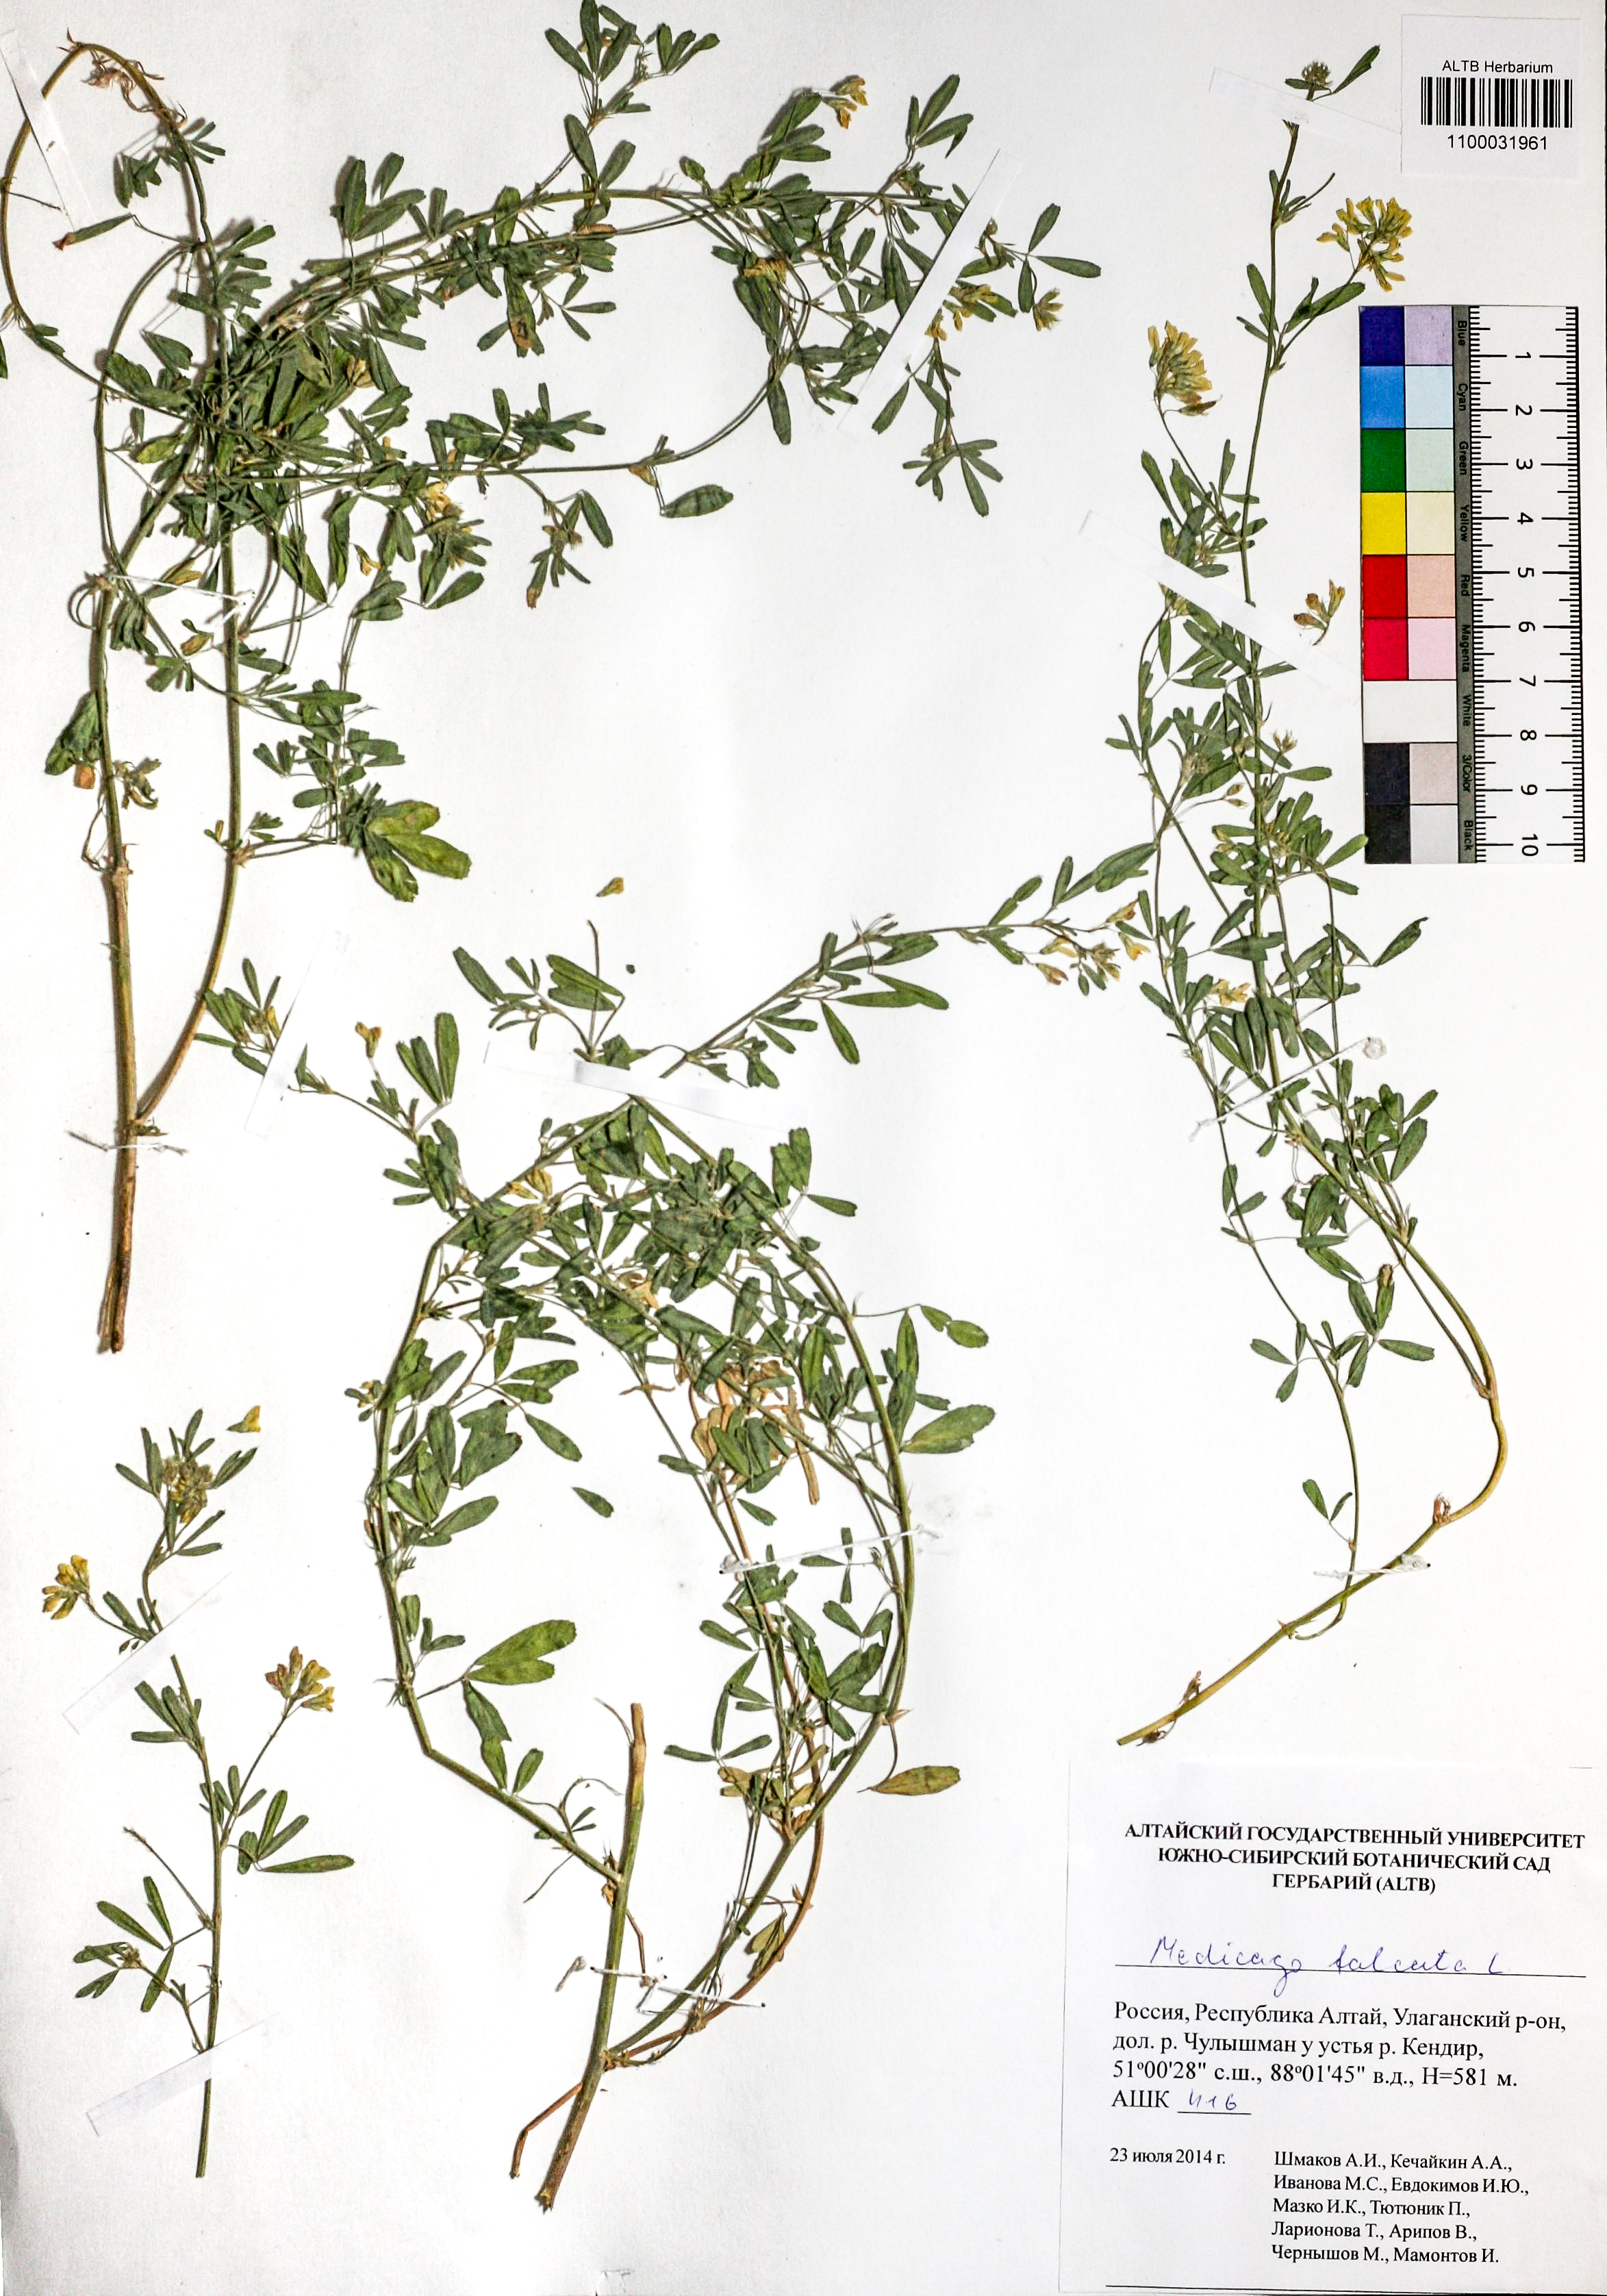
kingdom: Plantae
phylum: Tracheophyta
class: Magnoliopsida
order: Fabales
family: Fabaceae
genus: Medicago
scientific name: Medicago falcata
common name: Sickle medick
